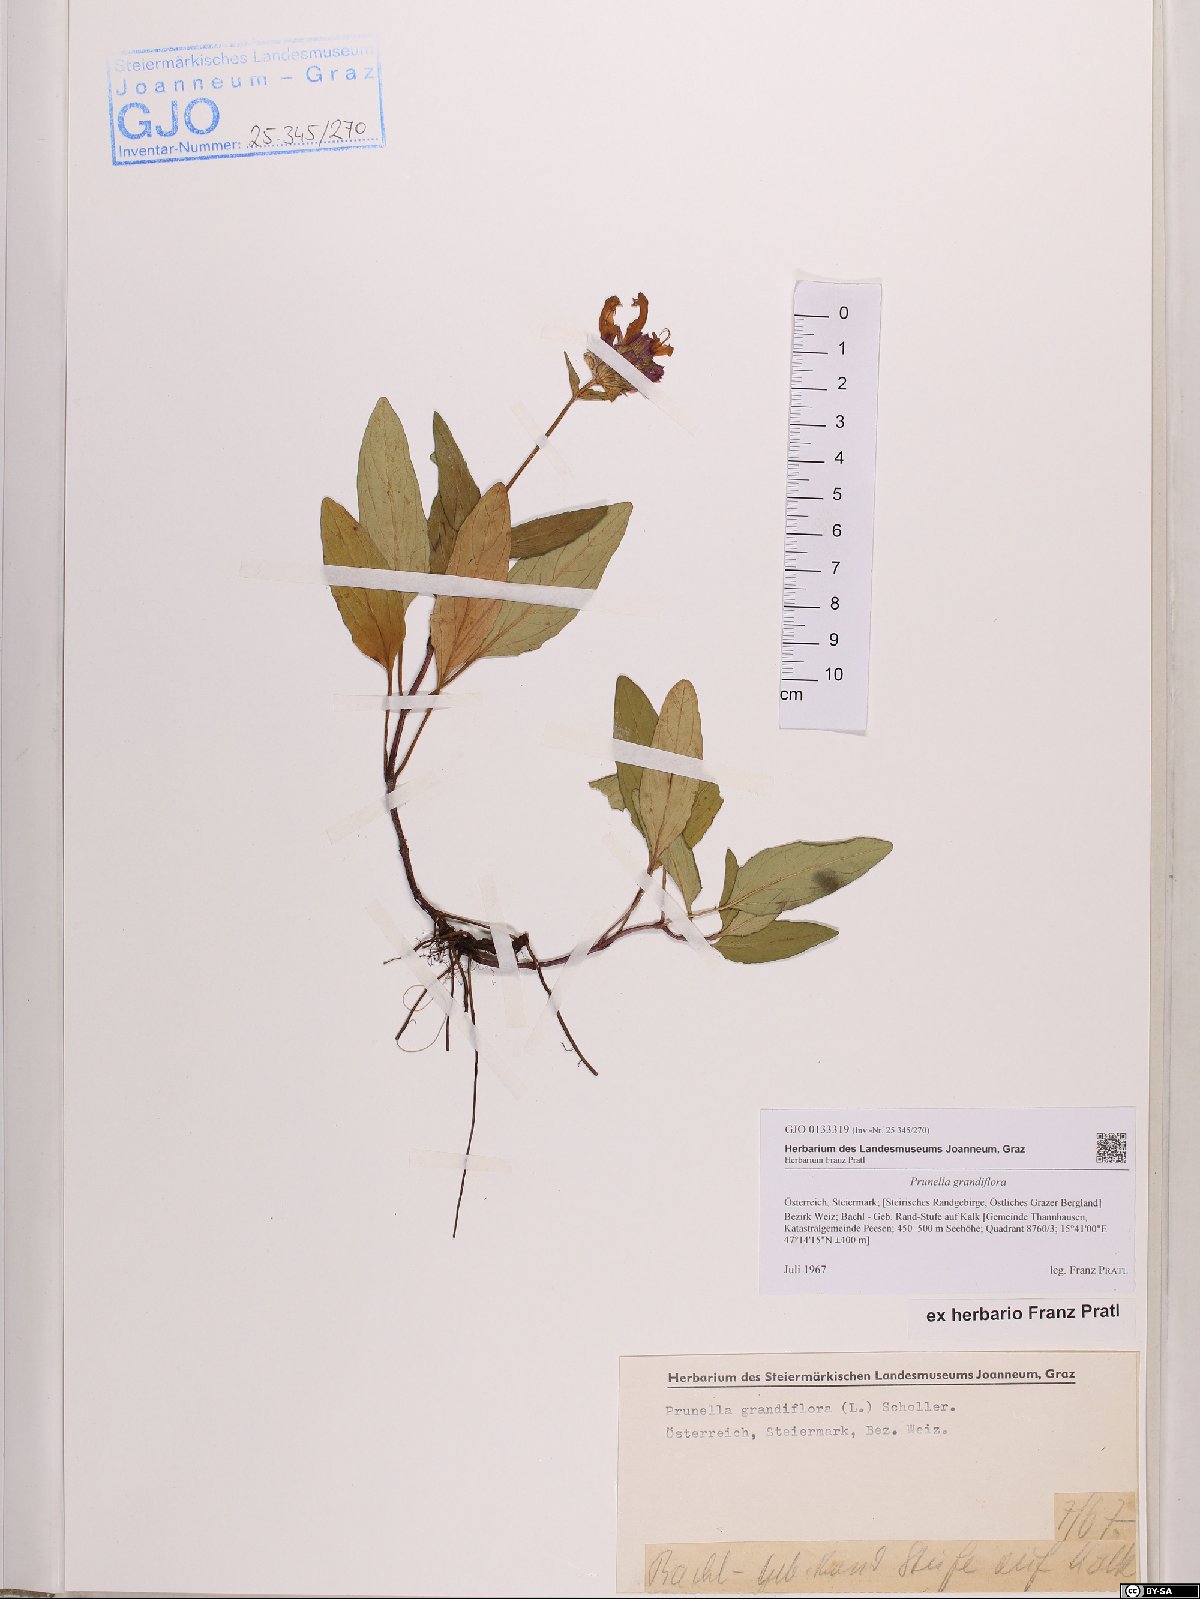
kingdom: Plantae
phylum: Tracheophyta
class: Magnoliopsida
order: Lamiales
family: Lamiaceae
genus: Prunella
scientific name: Prunella grandiflora
